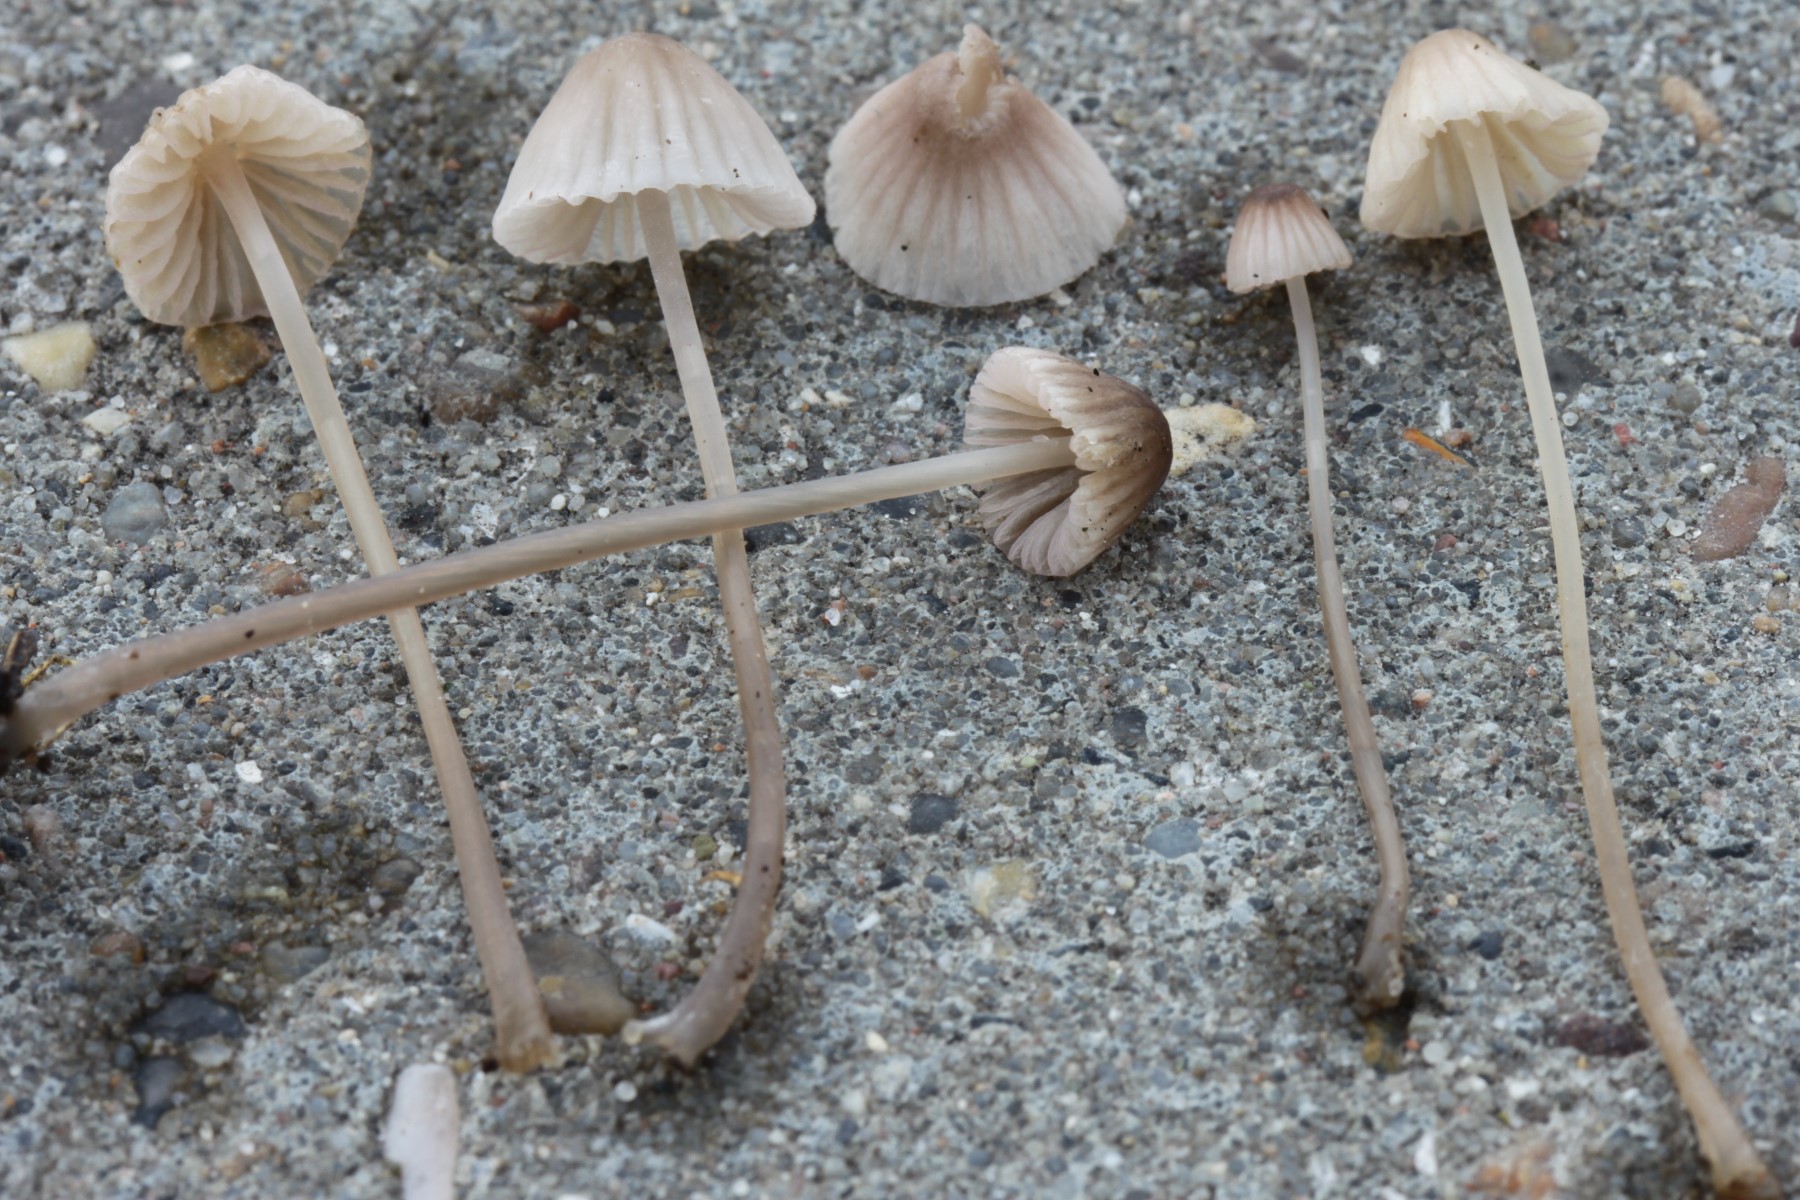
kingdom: Fungi
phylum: Basidiomycota
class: Agaricomycetes
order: Agaricales
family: Mycenaceae
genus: Mycena
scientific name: Mycena capillaripes
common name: nåle-huesvamp
